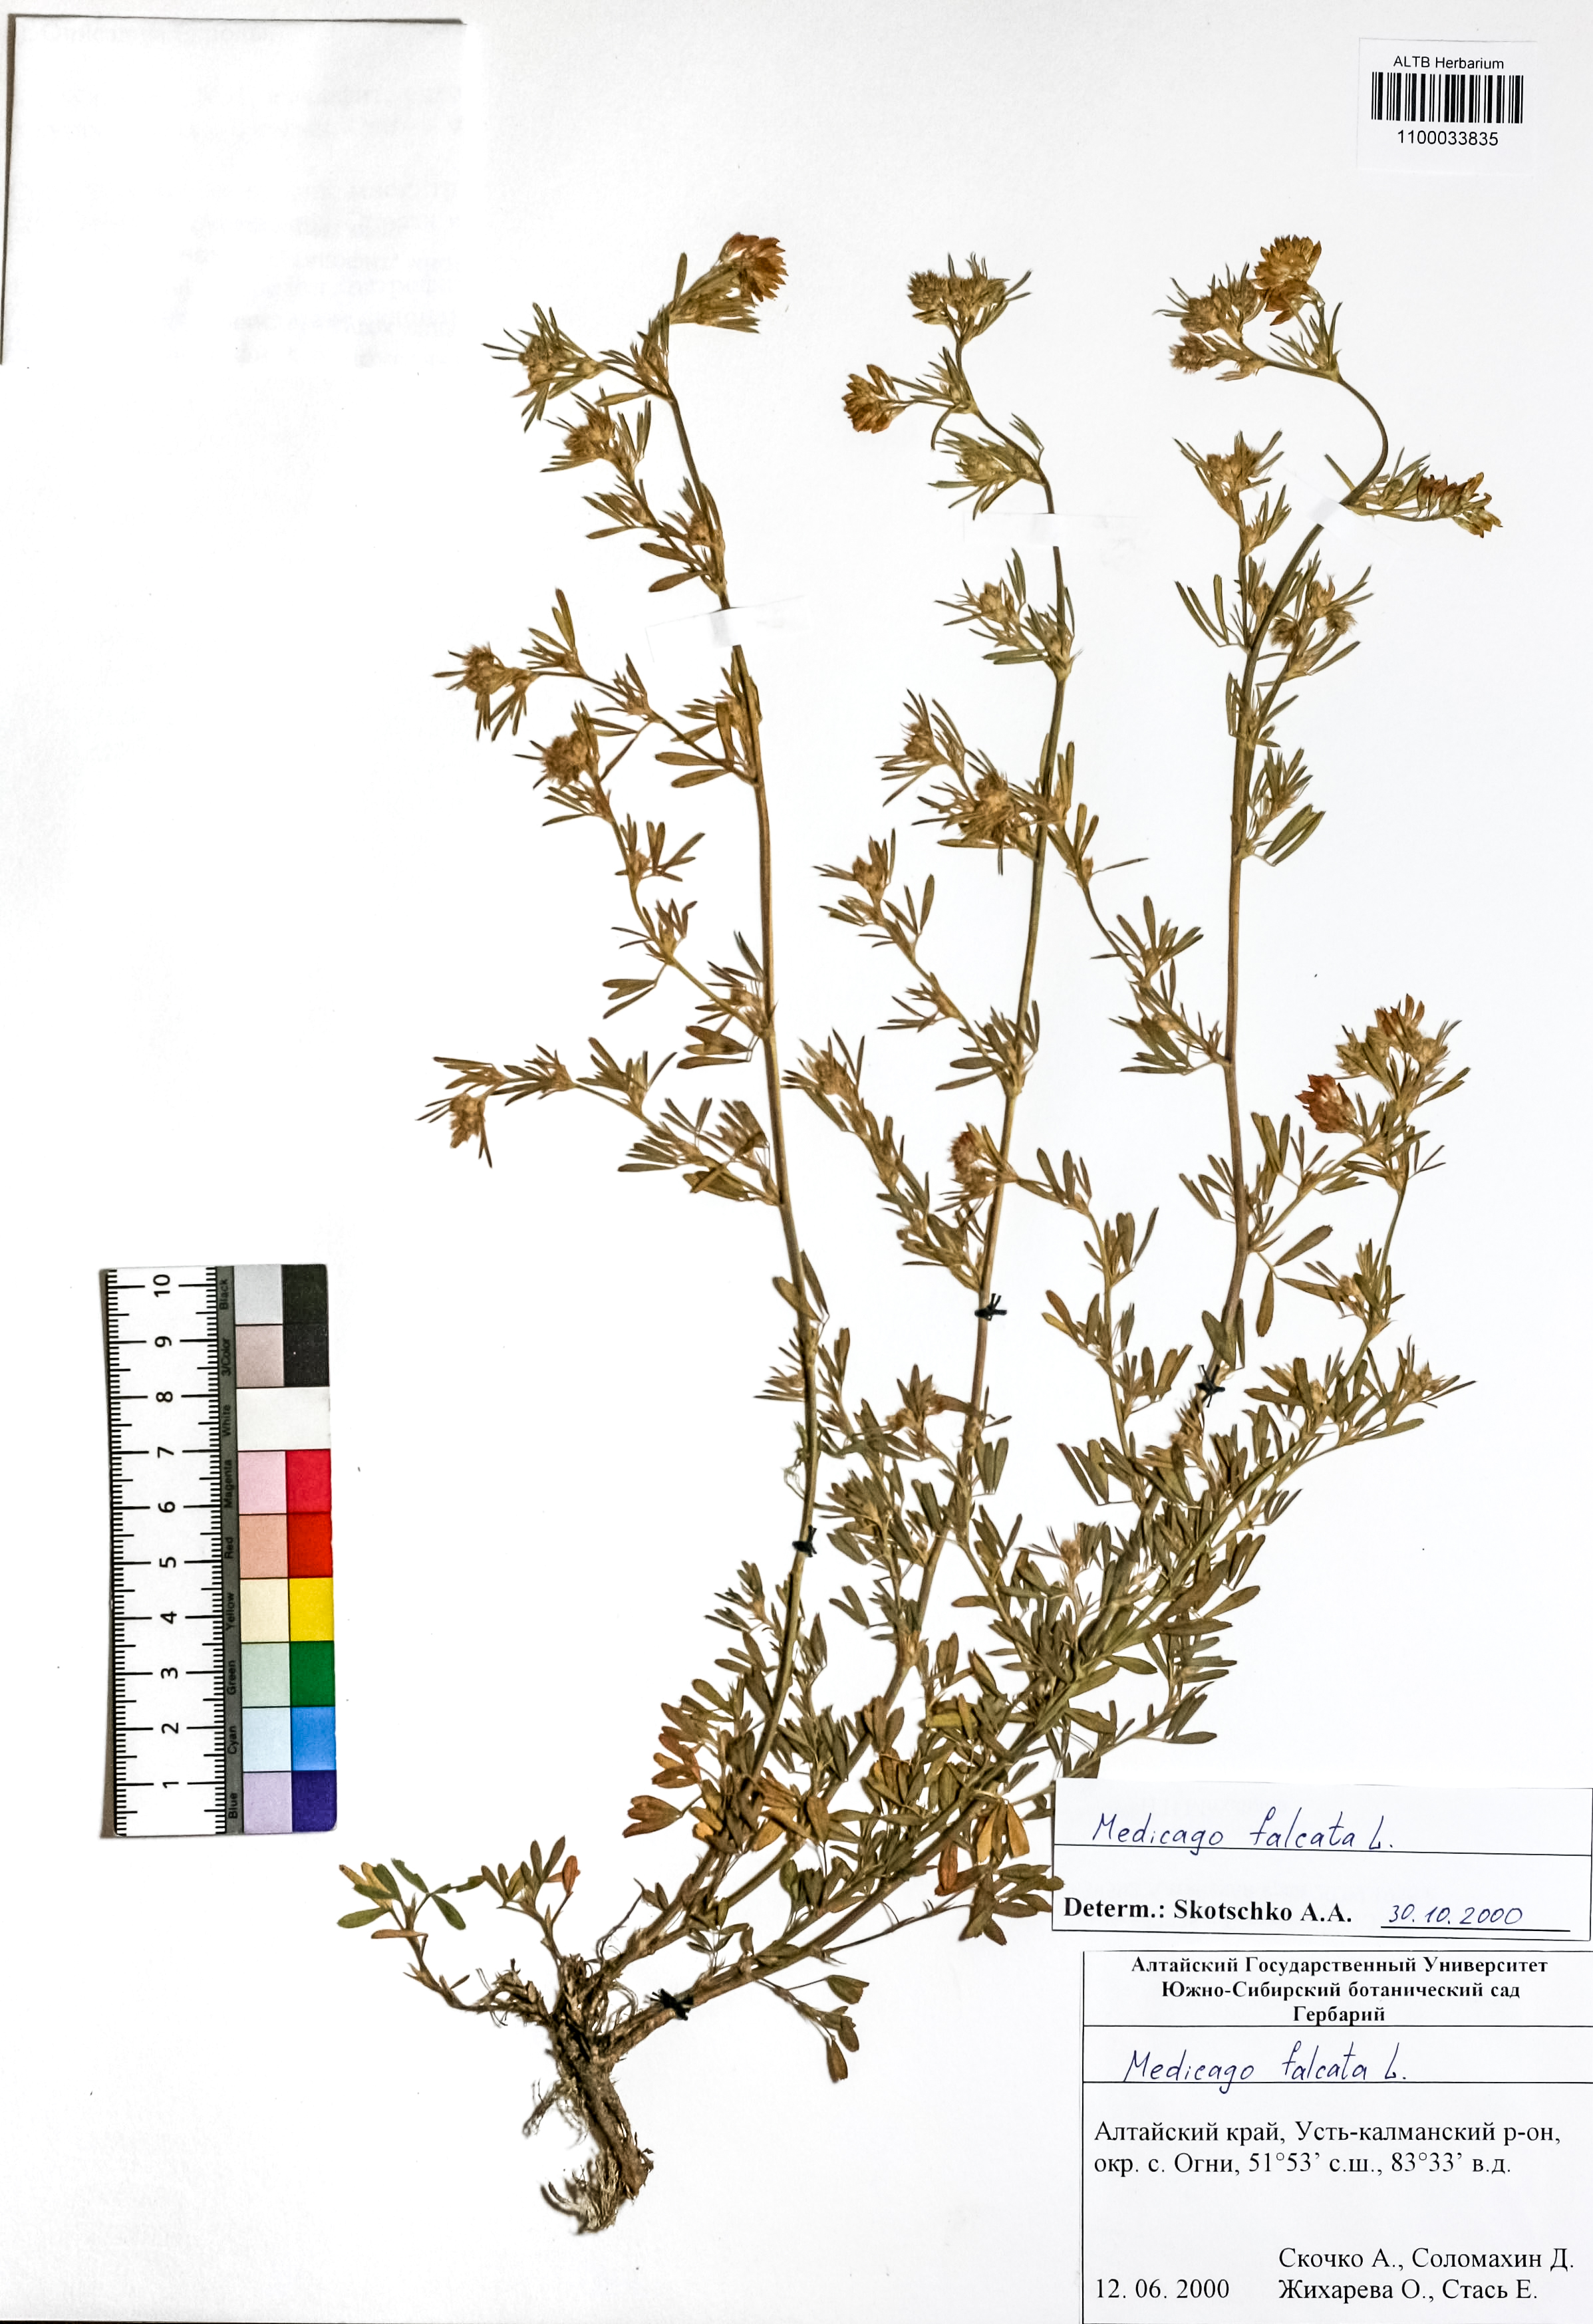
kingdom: Plantae
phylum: Tracheophyta
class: Magnoliopsida
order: Fabales
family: Fabaceae
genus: Medicago
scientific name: Medicago falcata
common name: Sickle medick
